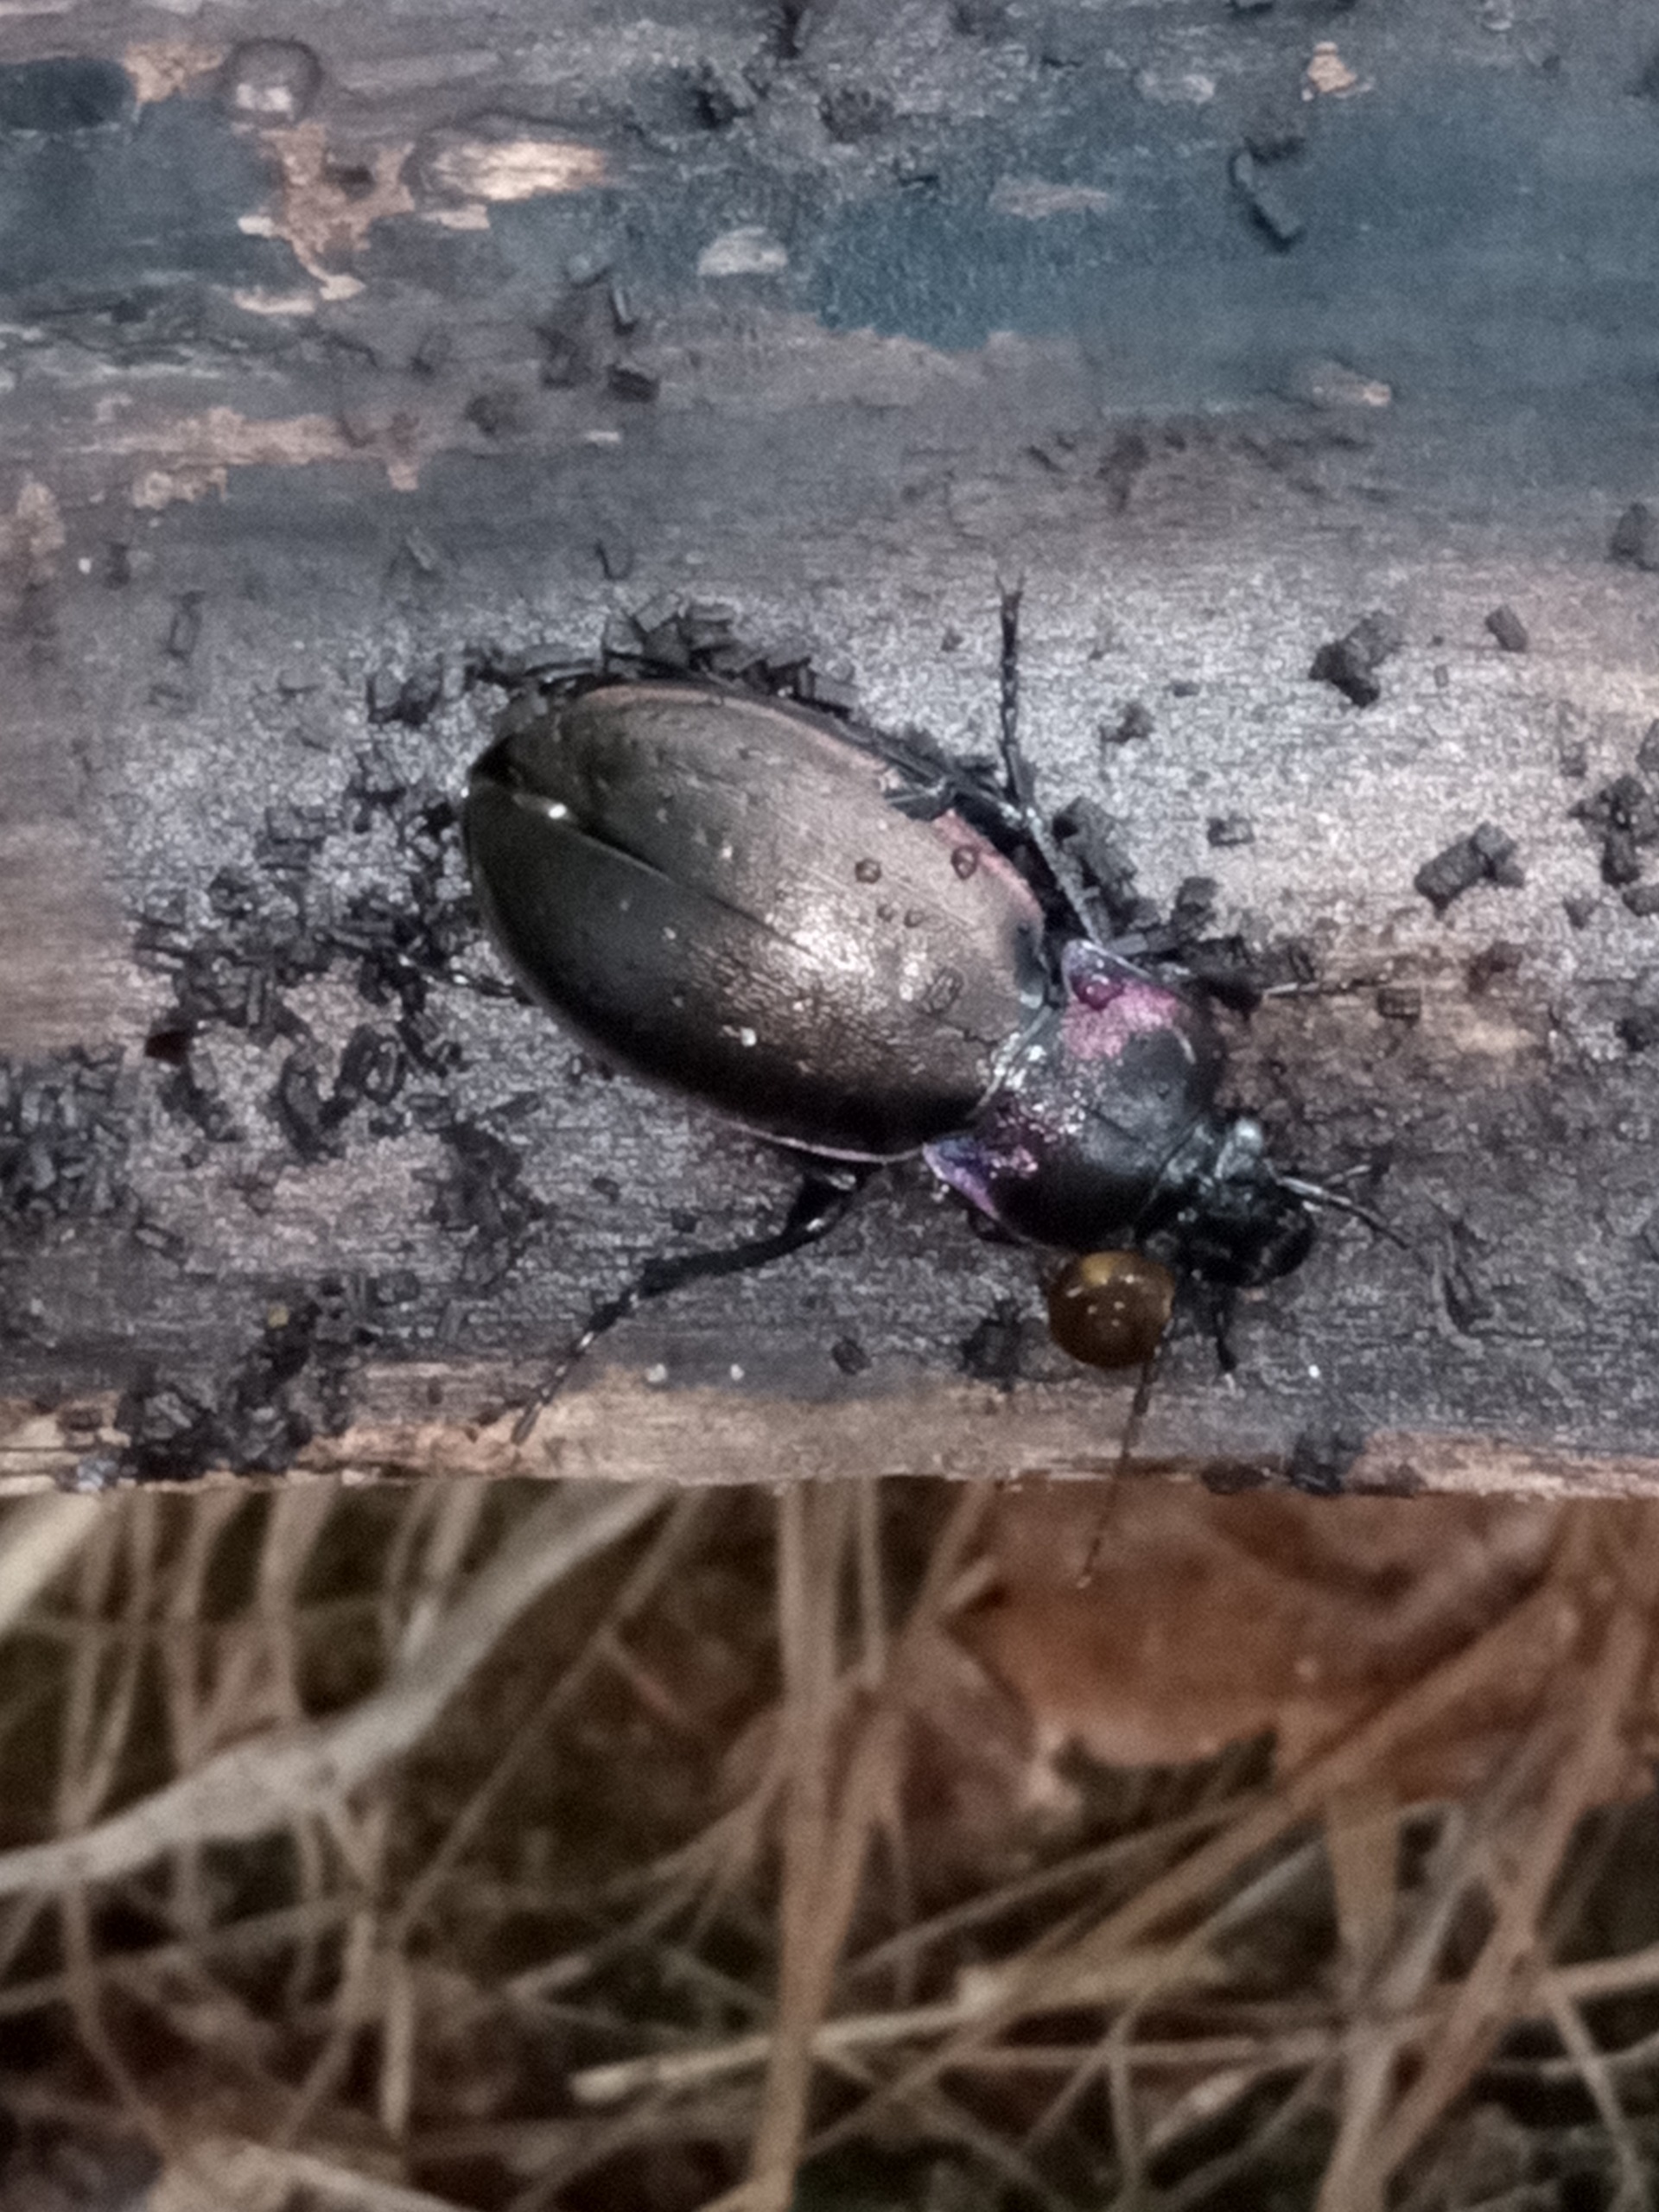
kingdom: Animalia
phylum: Arthropoda
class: Insecta
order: Coleoptera
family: Carabidae
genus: Carabus
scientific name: Carabus nemoralis
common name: Kratløber
